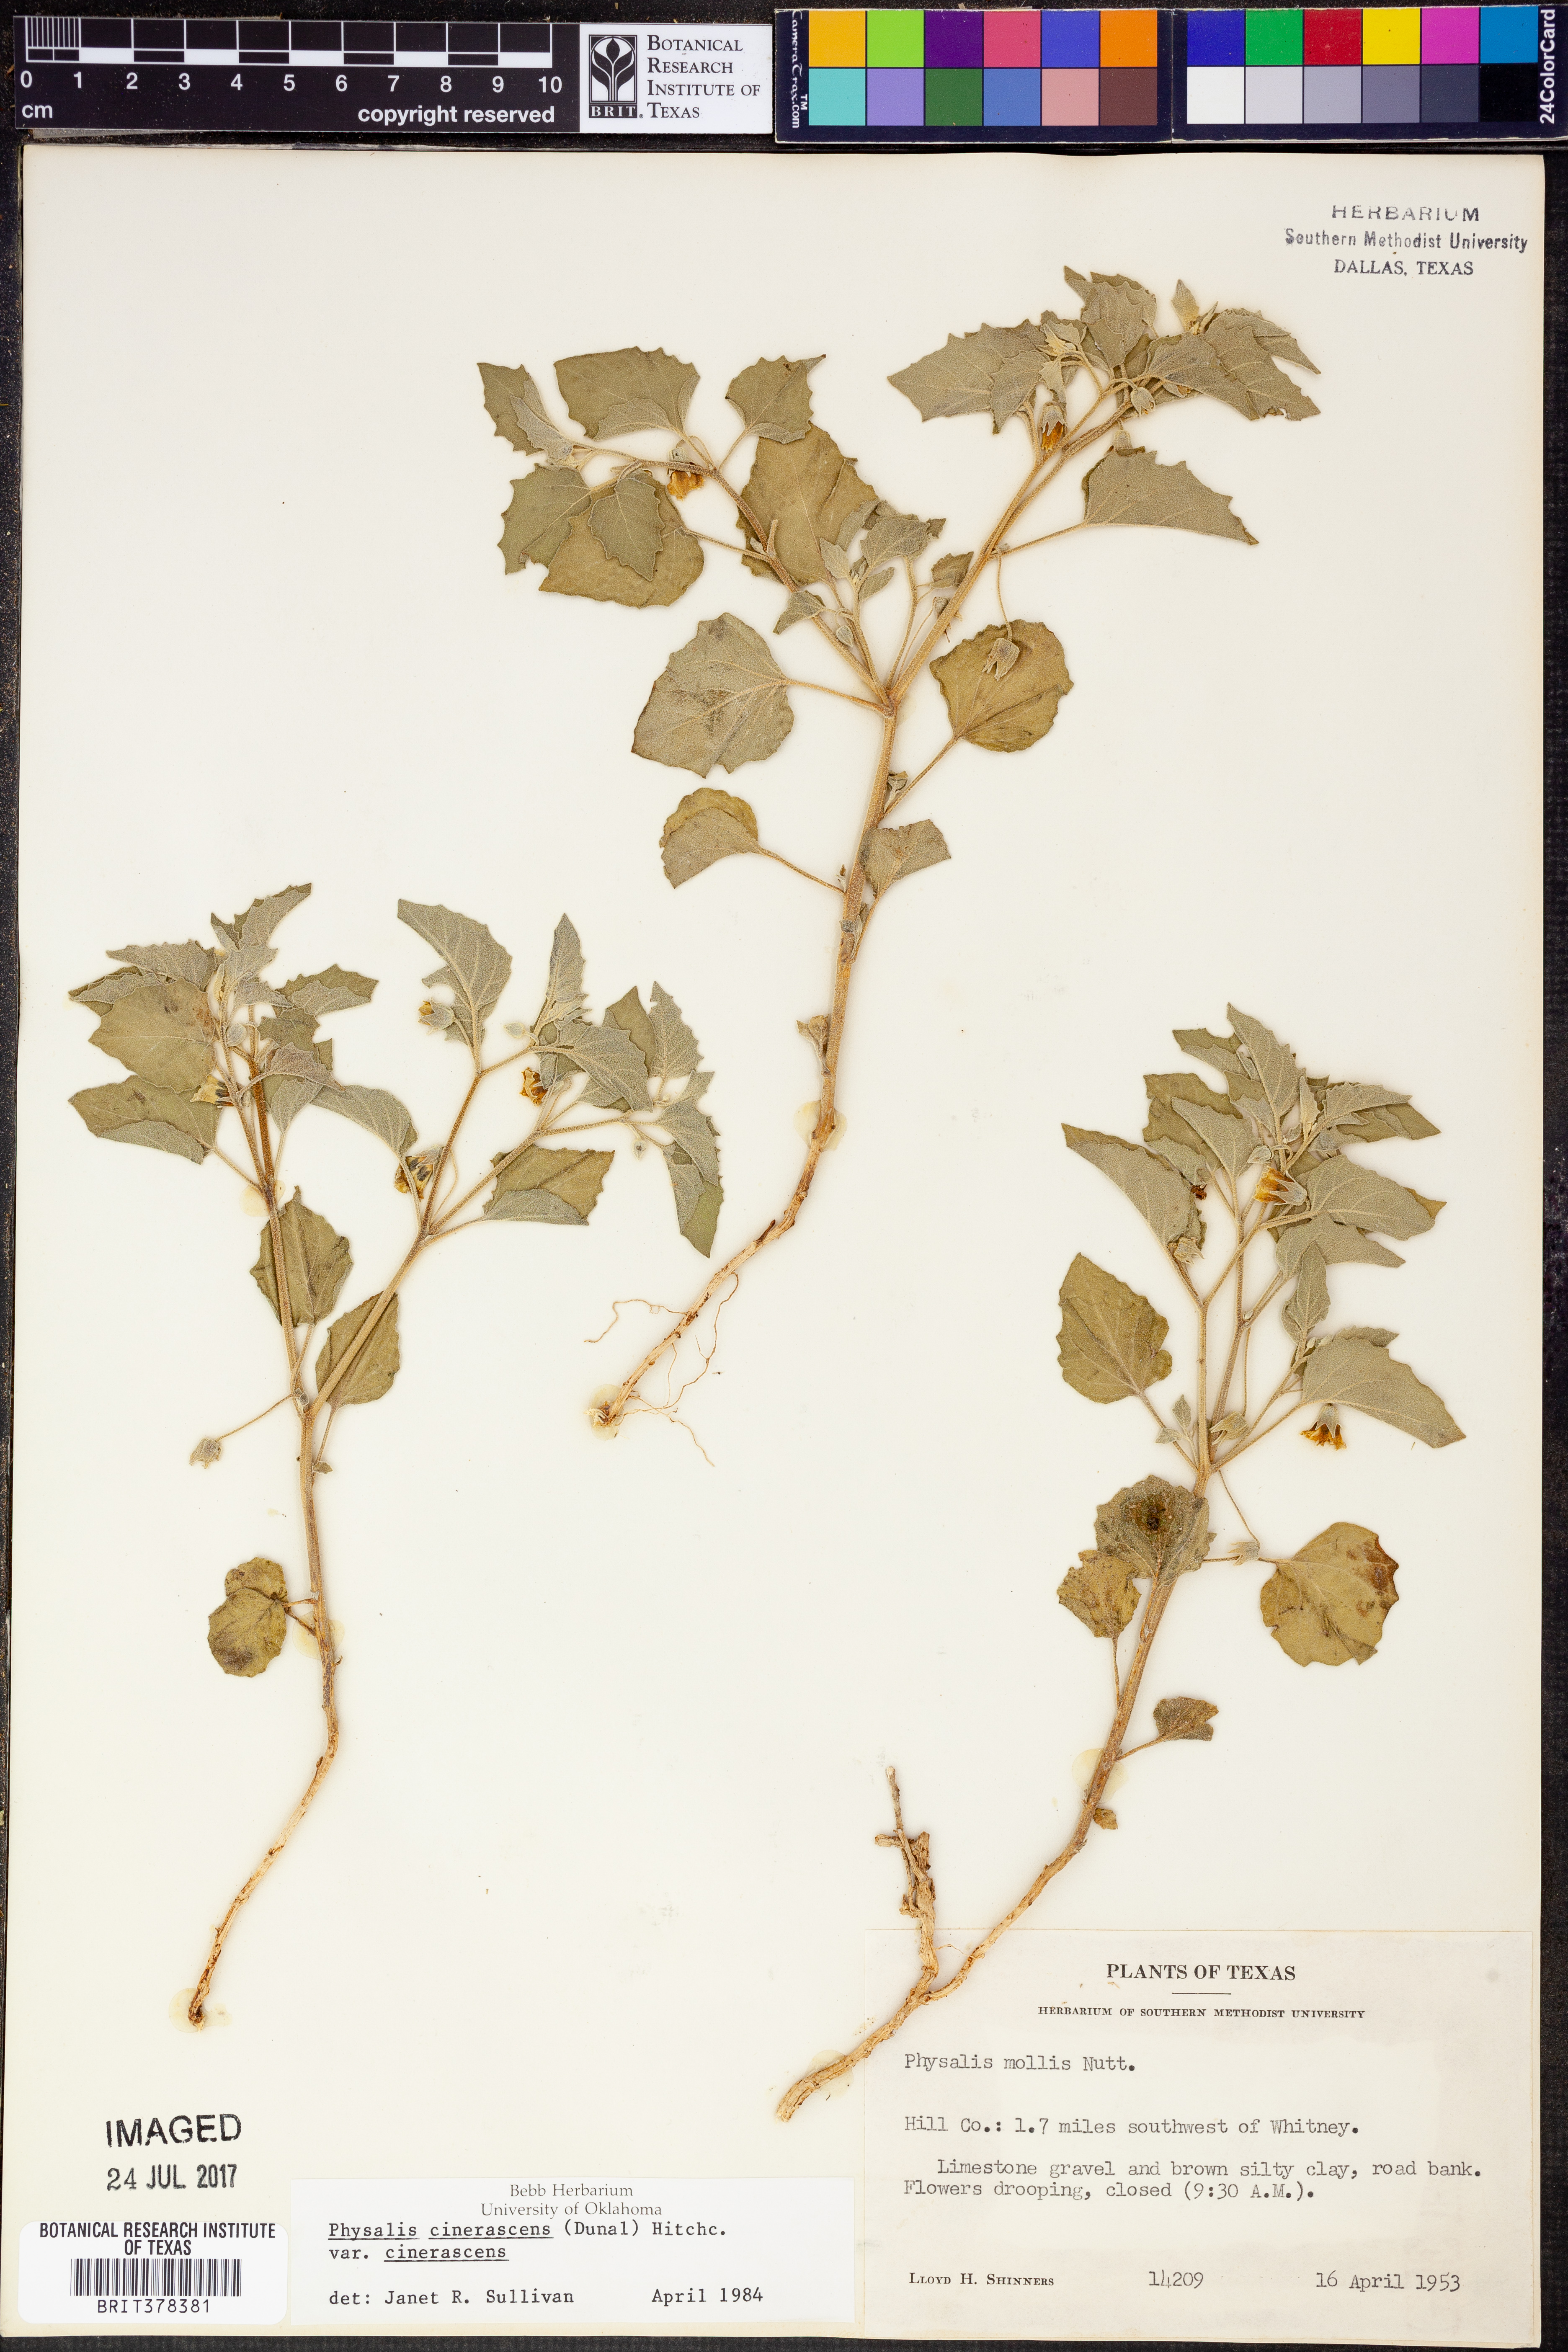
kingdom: Plantae
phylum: Tracheophyta
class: Magnoliopsida
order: Solanales
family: Solanaceae
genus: Physalis
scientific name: Physalis cinerascens
